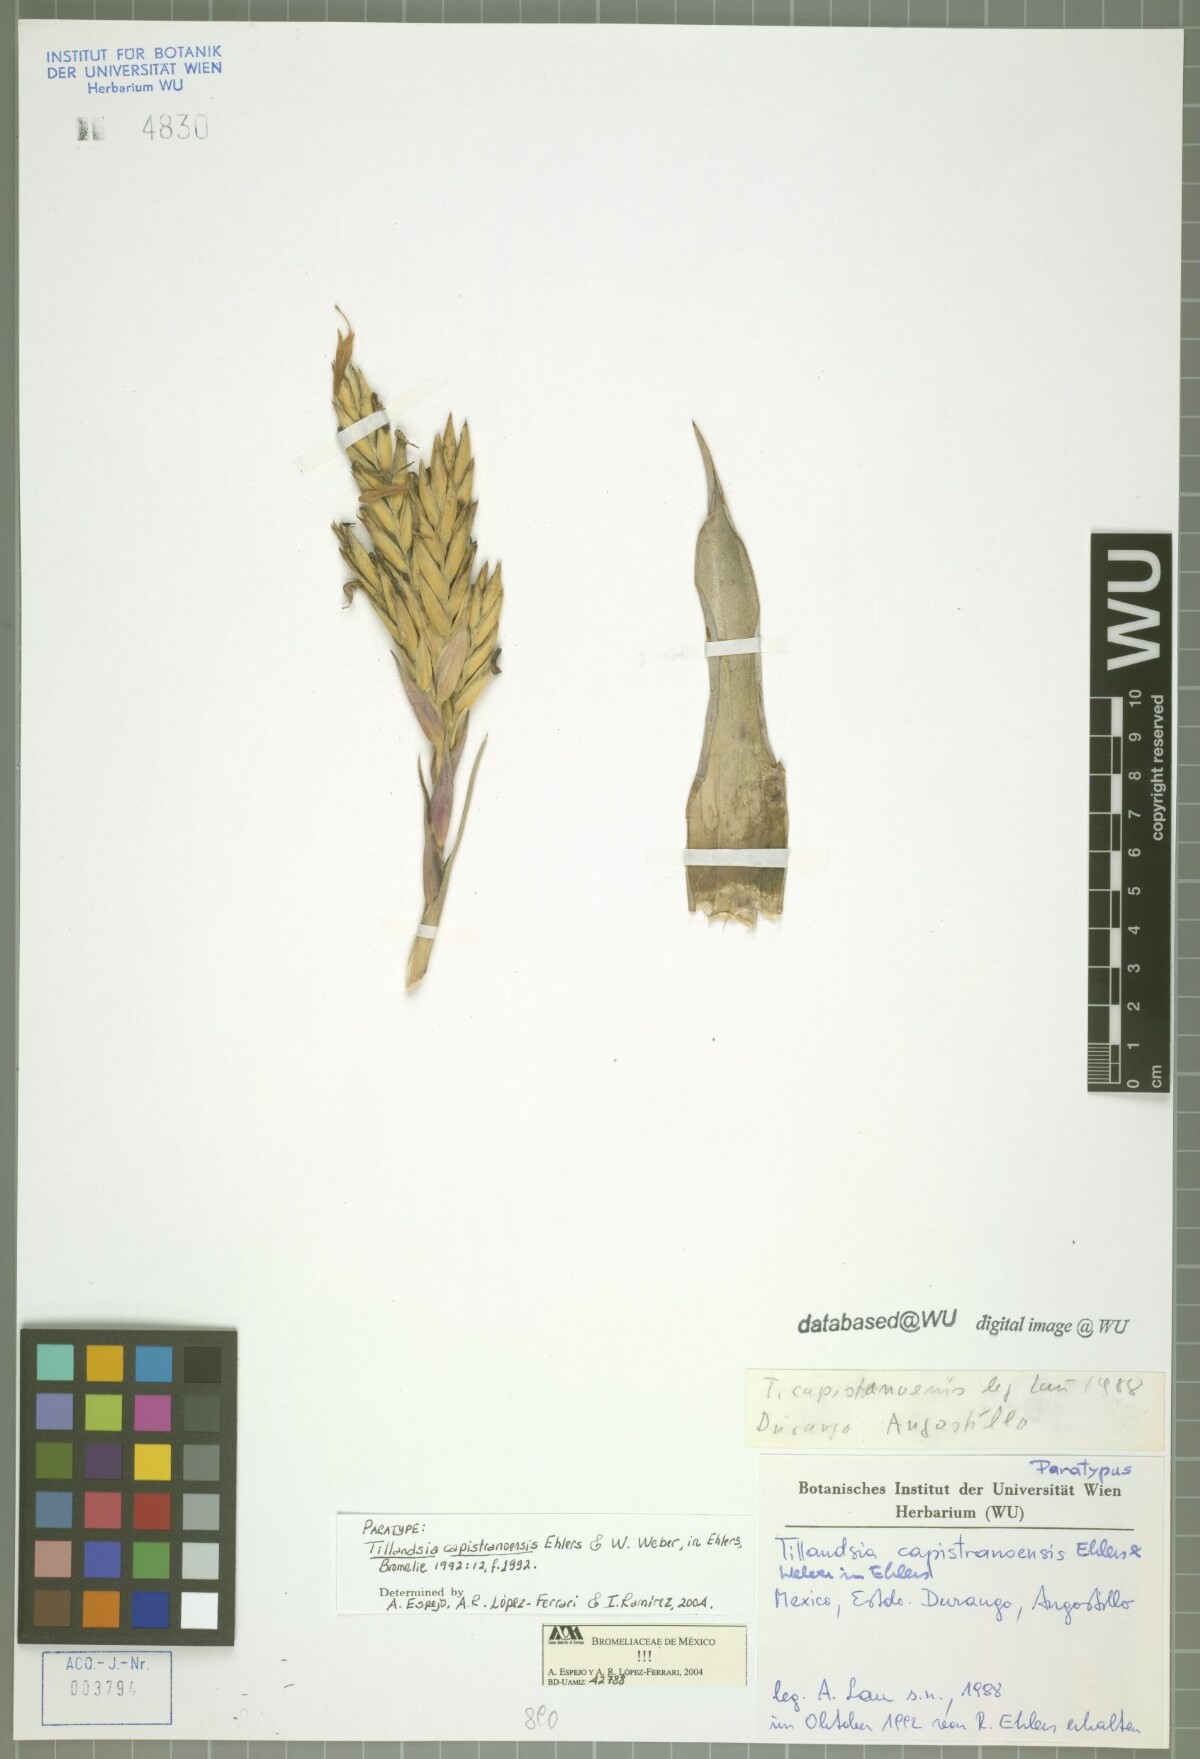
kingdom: Plantae
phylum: Tracheophyta
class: Liliopsida
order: Poales
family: Bromeliaceae
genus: Tillandsia
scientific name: Tillandsia capistranoensis
